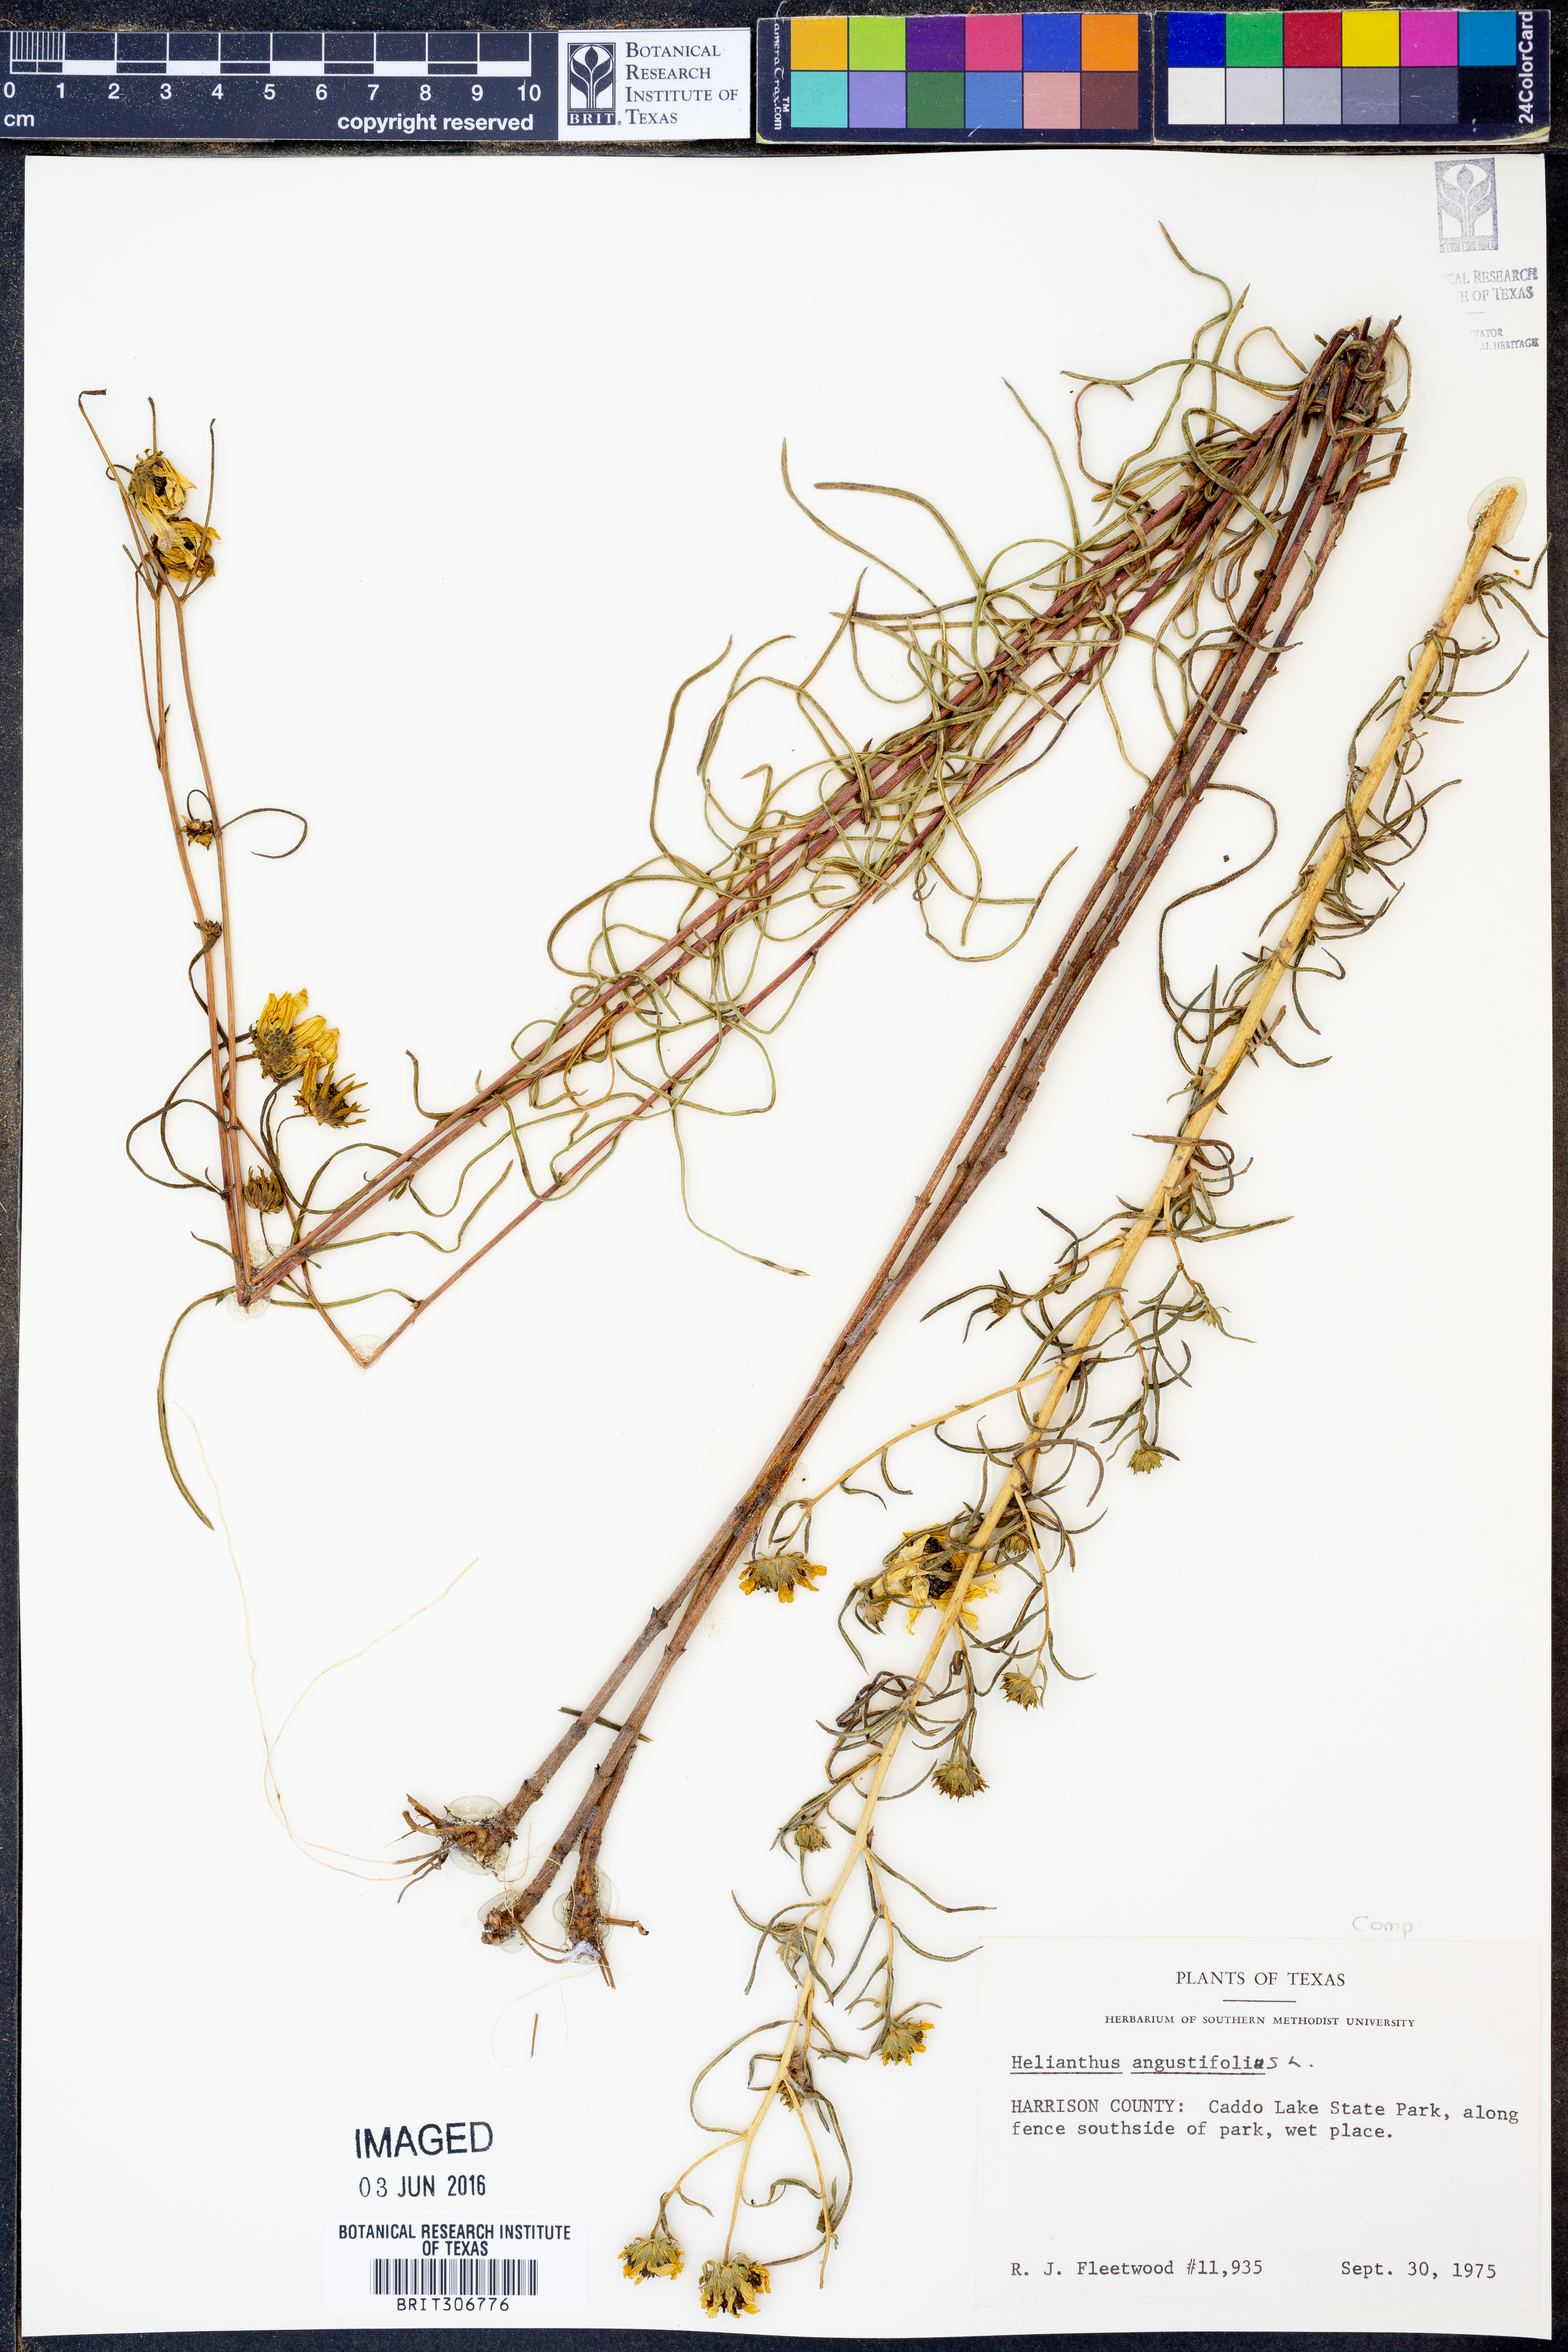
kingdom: Plantae
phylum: Tracheophyta
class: Magnoliopsida
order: Asterales
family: Asteraceae
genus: Helianthus
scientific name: Helianthus angustifolius
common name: Swamp sunflower
